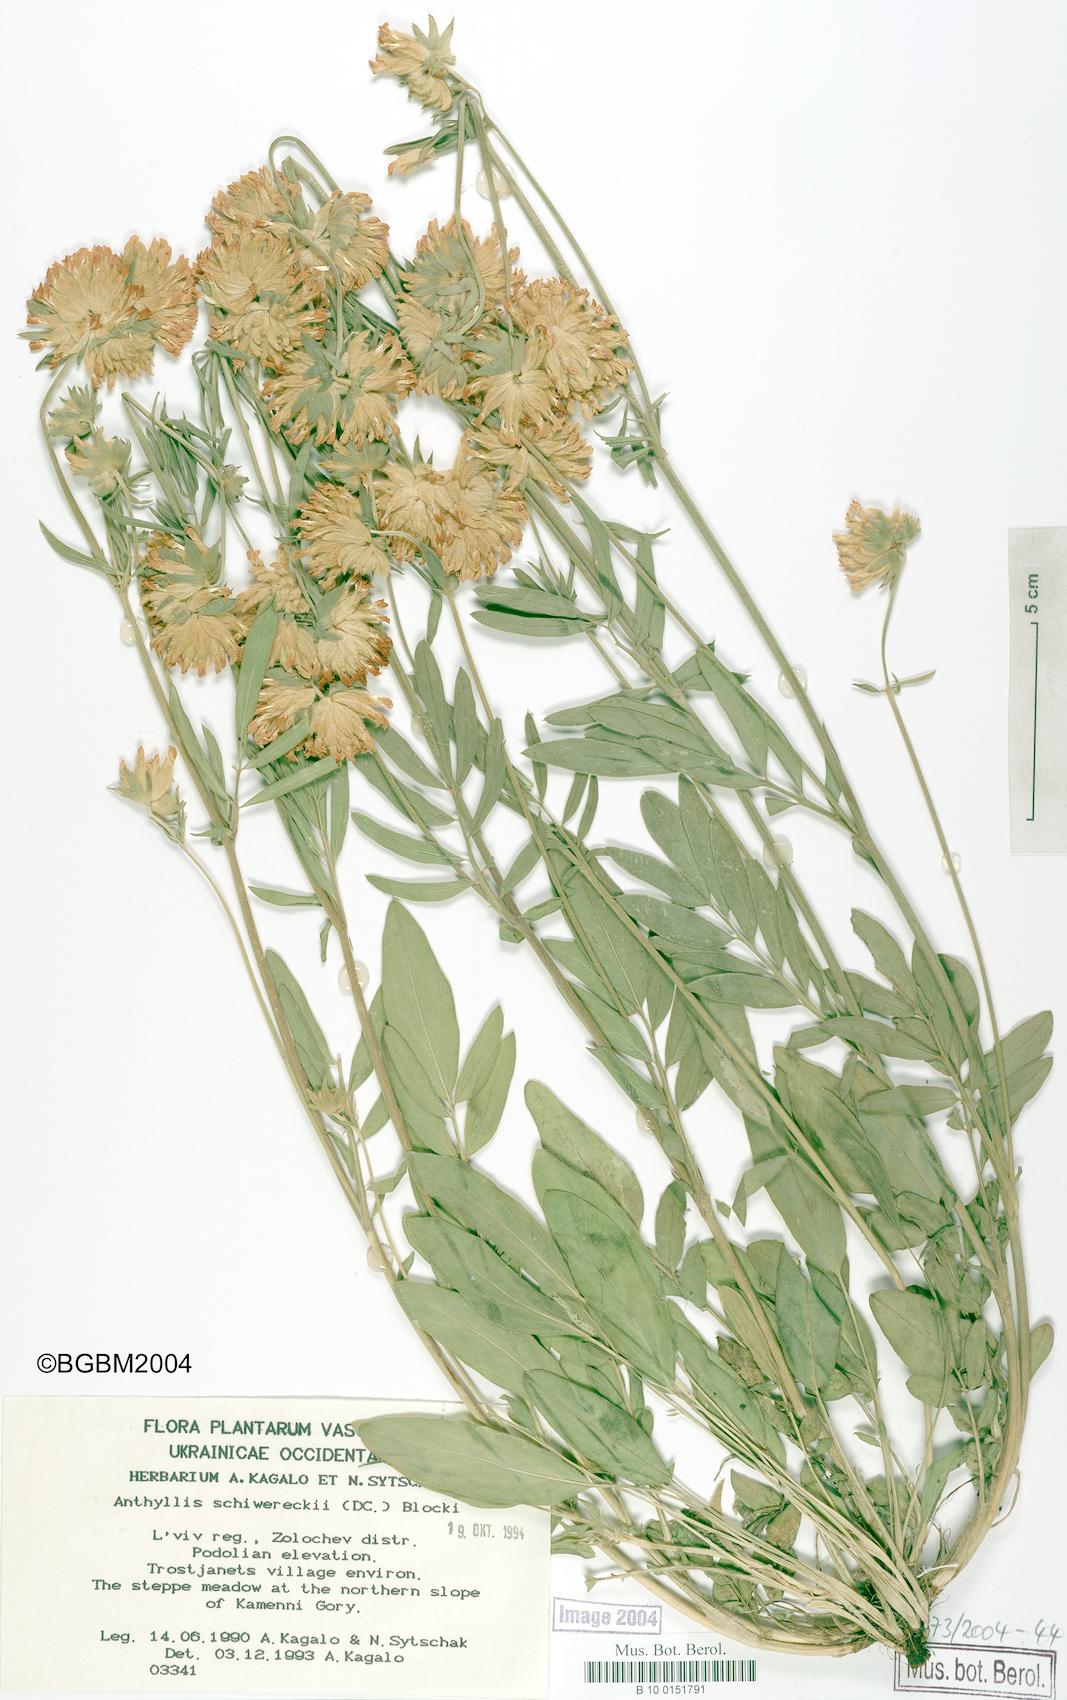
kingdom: Plantae
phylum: Tracheophyta
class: Magnoliopsida
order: Fabales
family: Fabaceae
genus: Anthyllis
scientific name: Anthyllis vulneraria
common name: Kidney vetch
